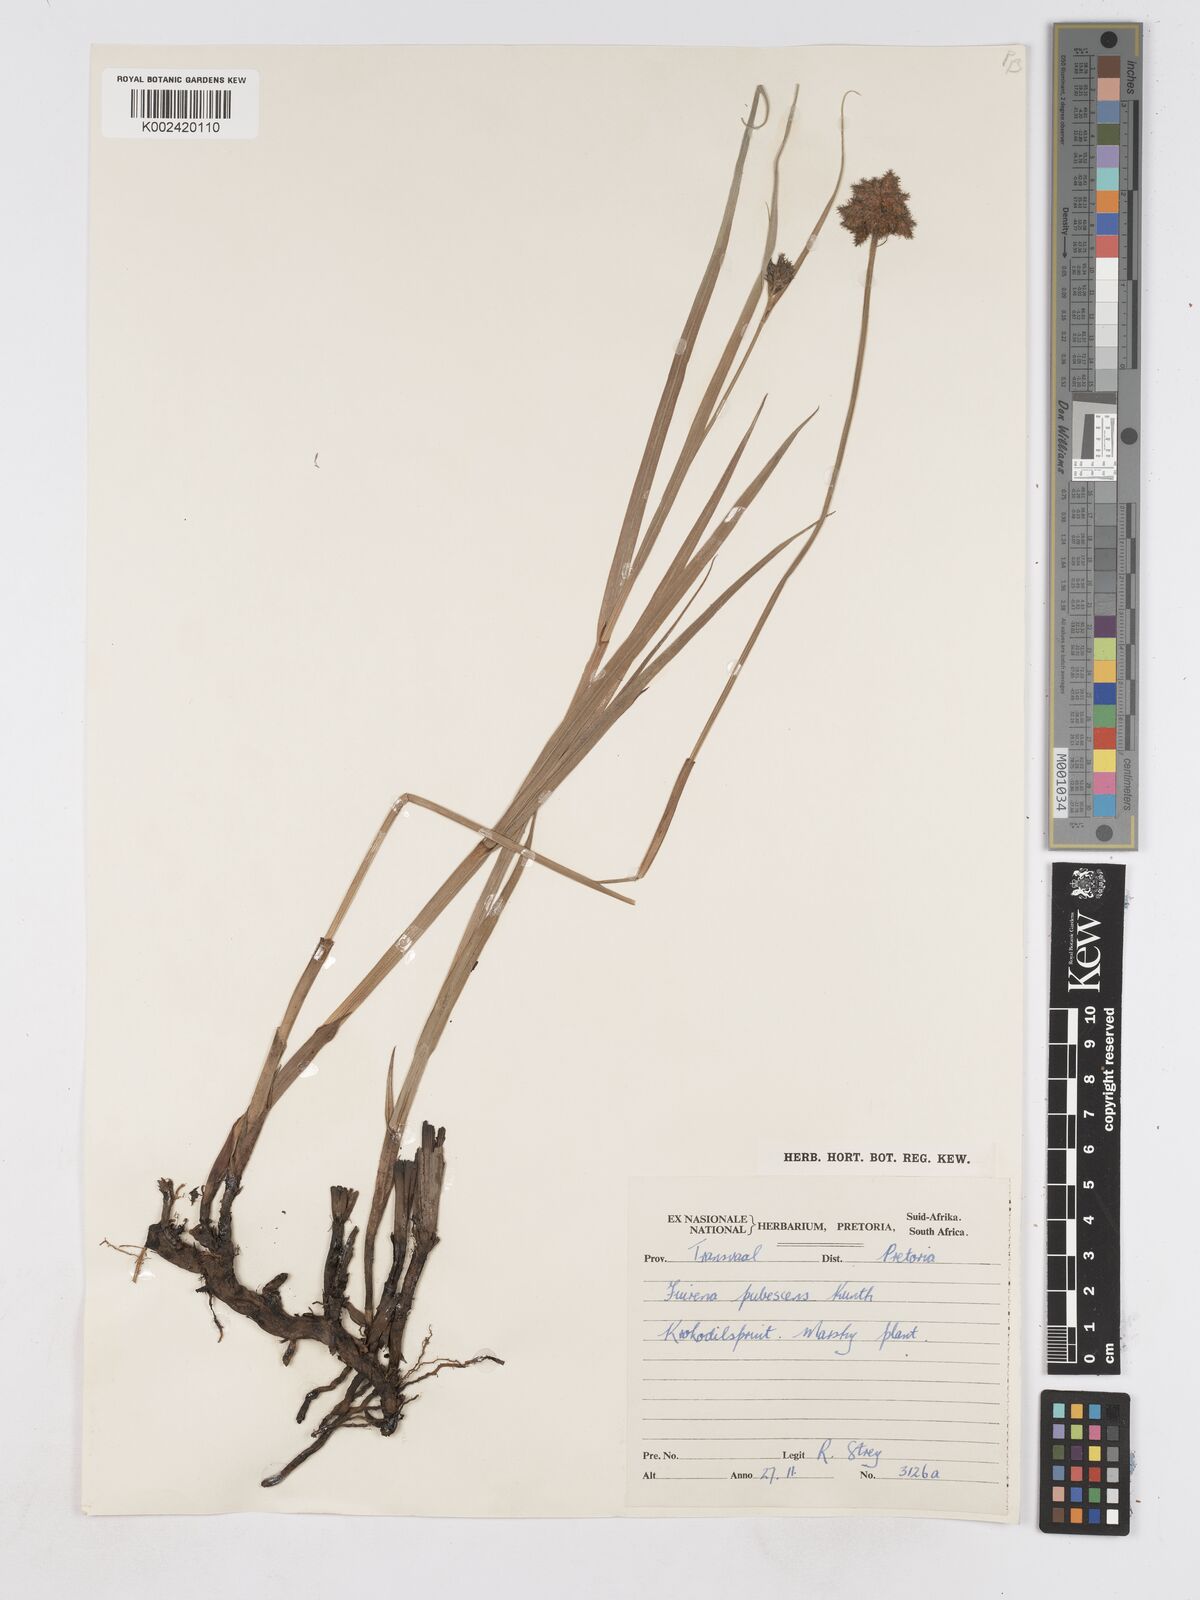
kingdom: Plantae
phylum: Tracheophyta
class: Liliopsida
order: Poales
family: Cyperaceae
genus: Fuirena
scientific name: Fuirena pubescens
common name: Hairy sedge
